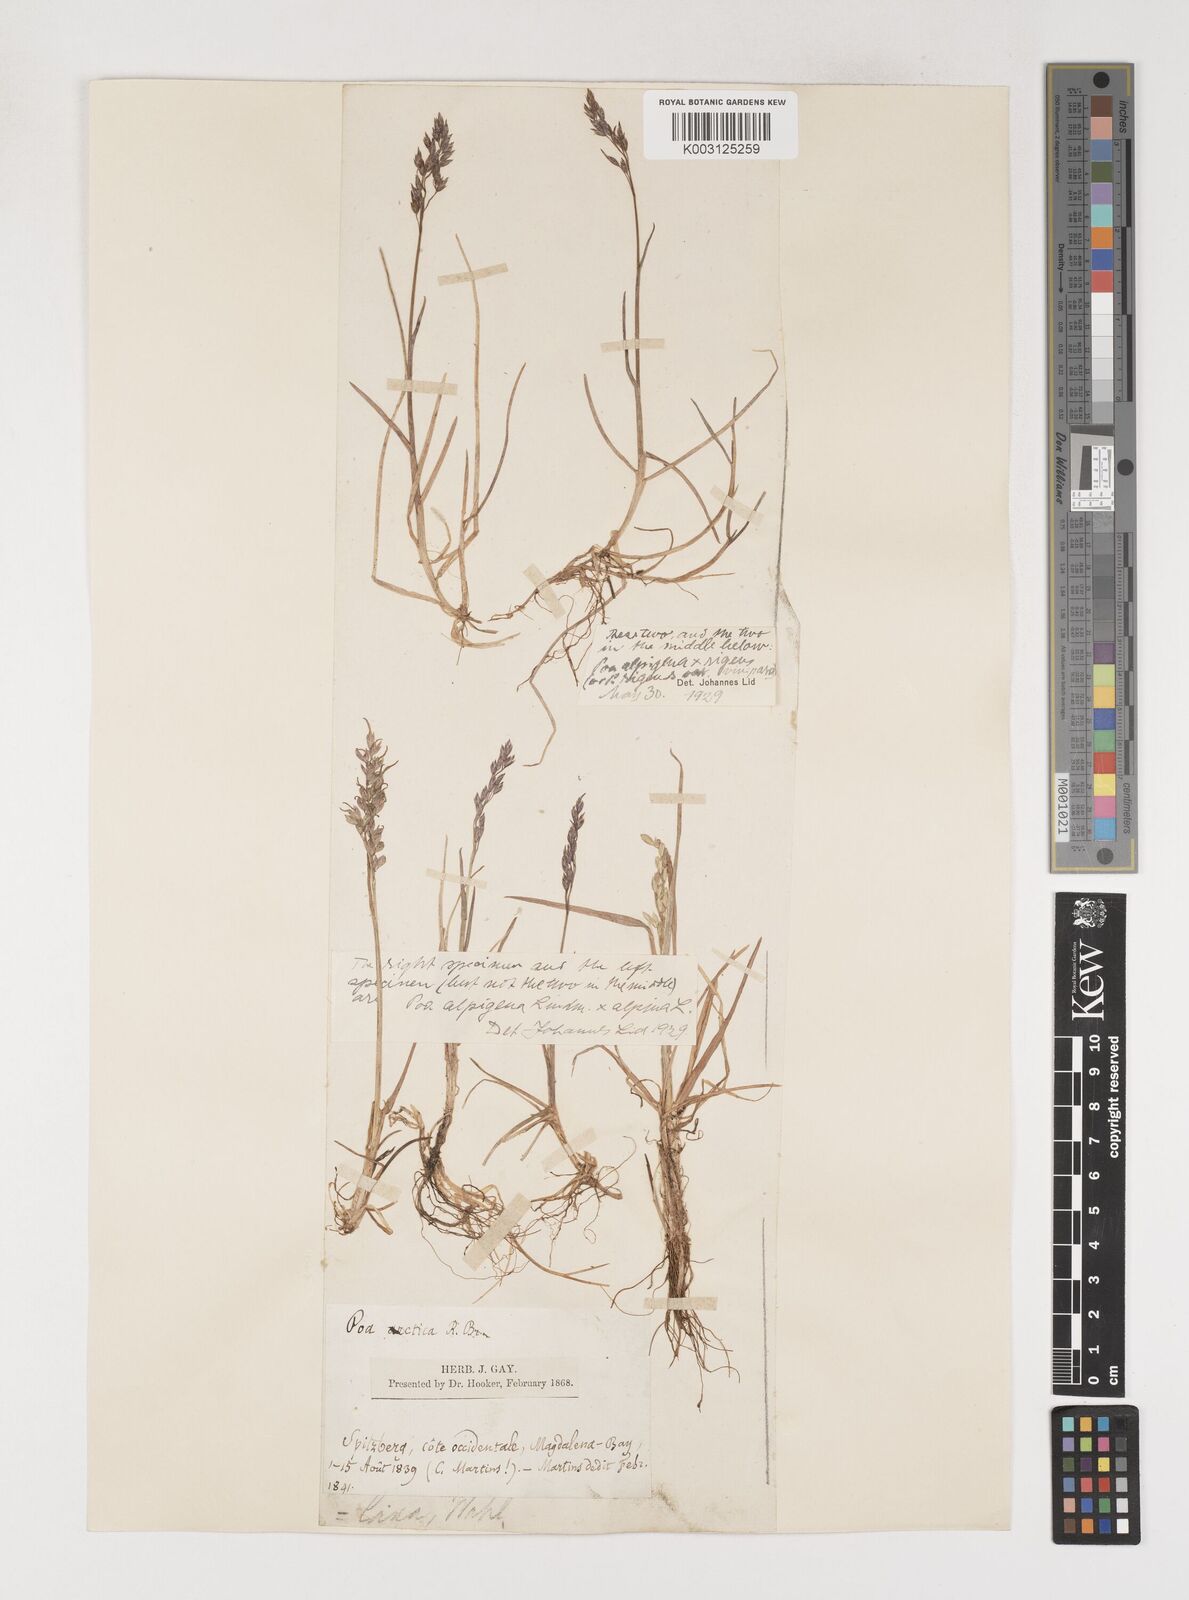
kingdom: Plantae
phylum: Tracheophyta
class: Liliopsida
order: Poales
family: Poaceae
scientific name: Poaceae
